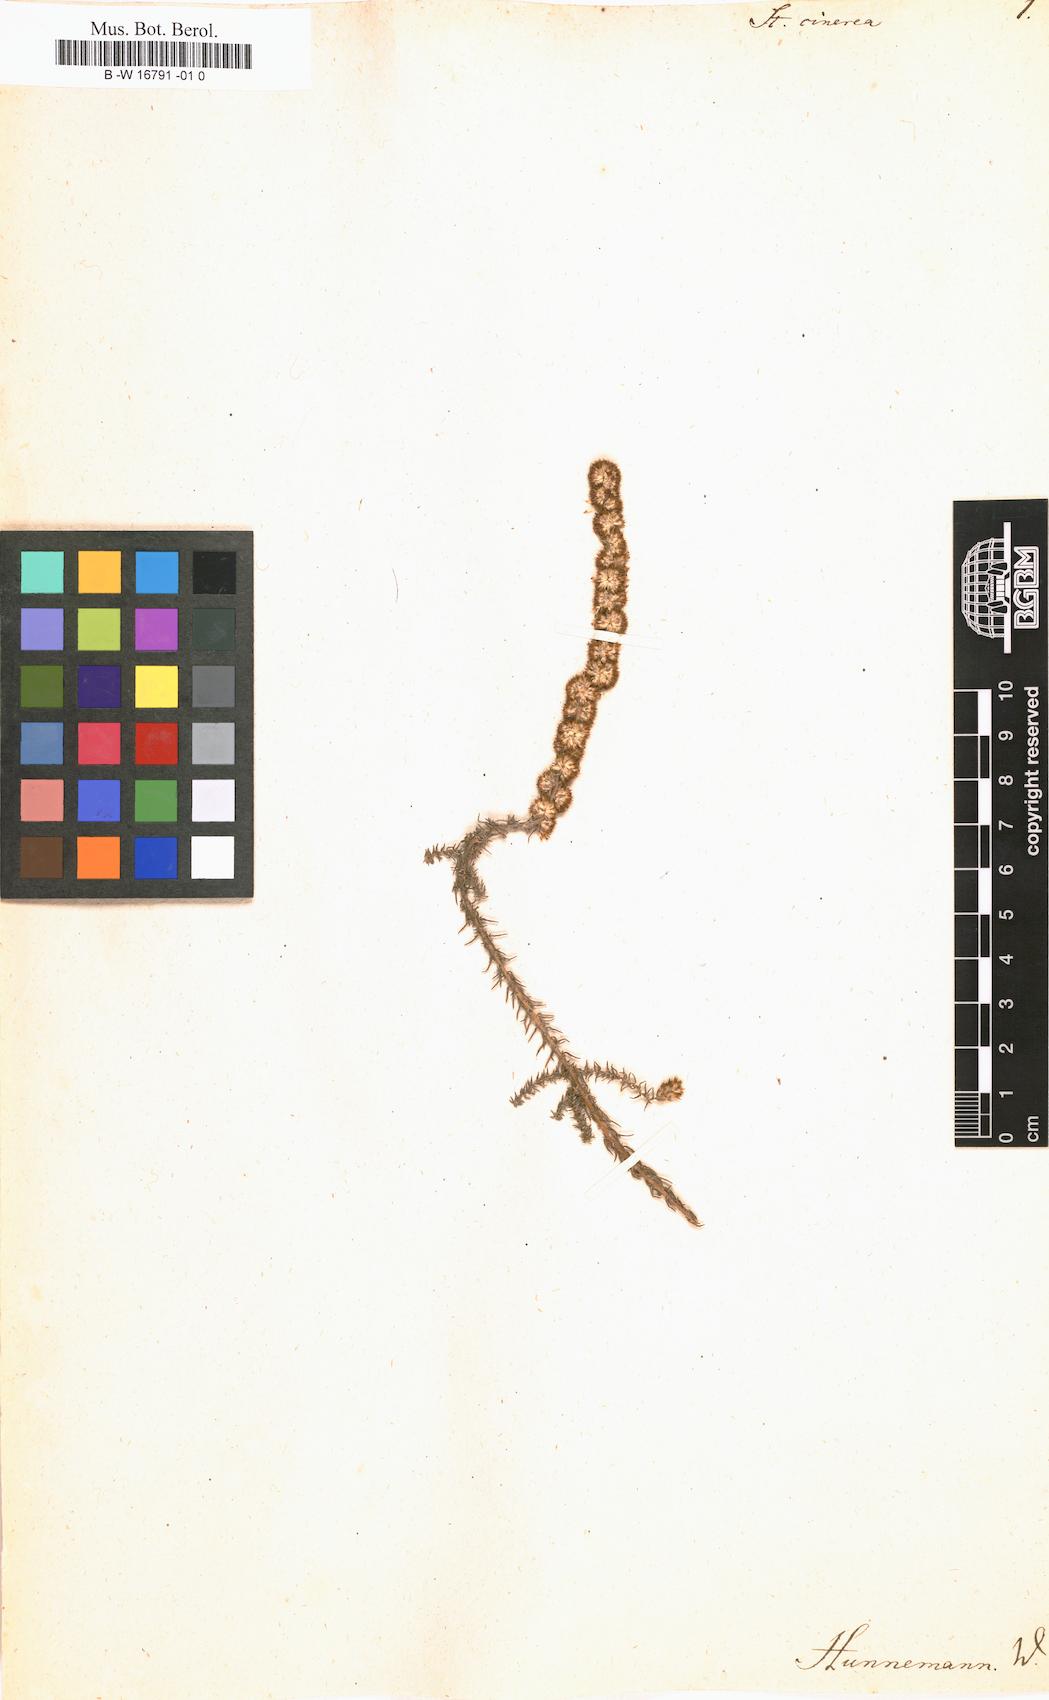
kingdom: Plantae
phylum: Tracheophyta
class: Magnoliopsida
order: Asterales
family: Asteraceae
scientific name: Asteraceae
